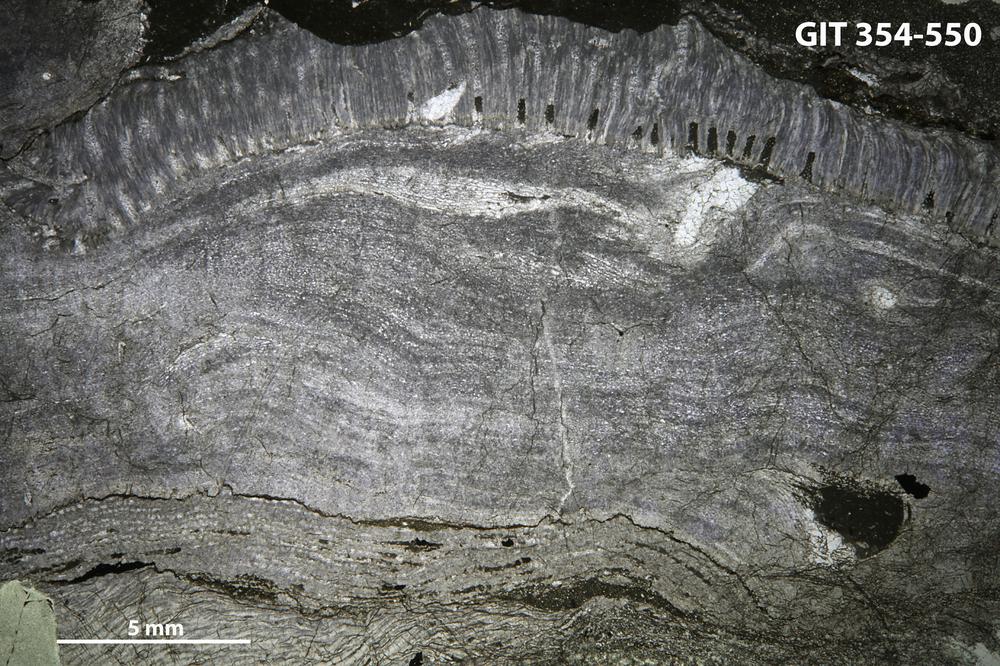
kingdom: Animalia
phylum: Porifera
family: Stromatoporellidae
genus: Simplexodictyon
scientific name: Simplexodictyon
